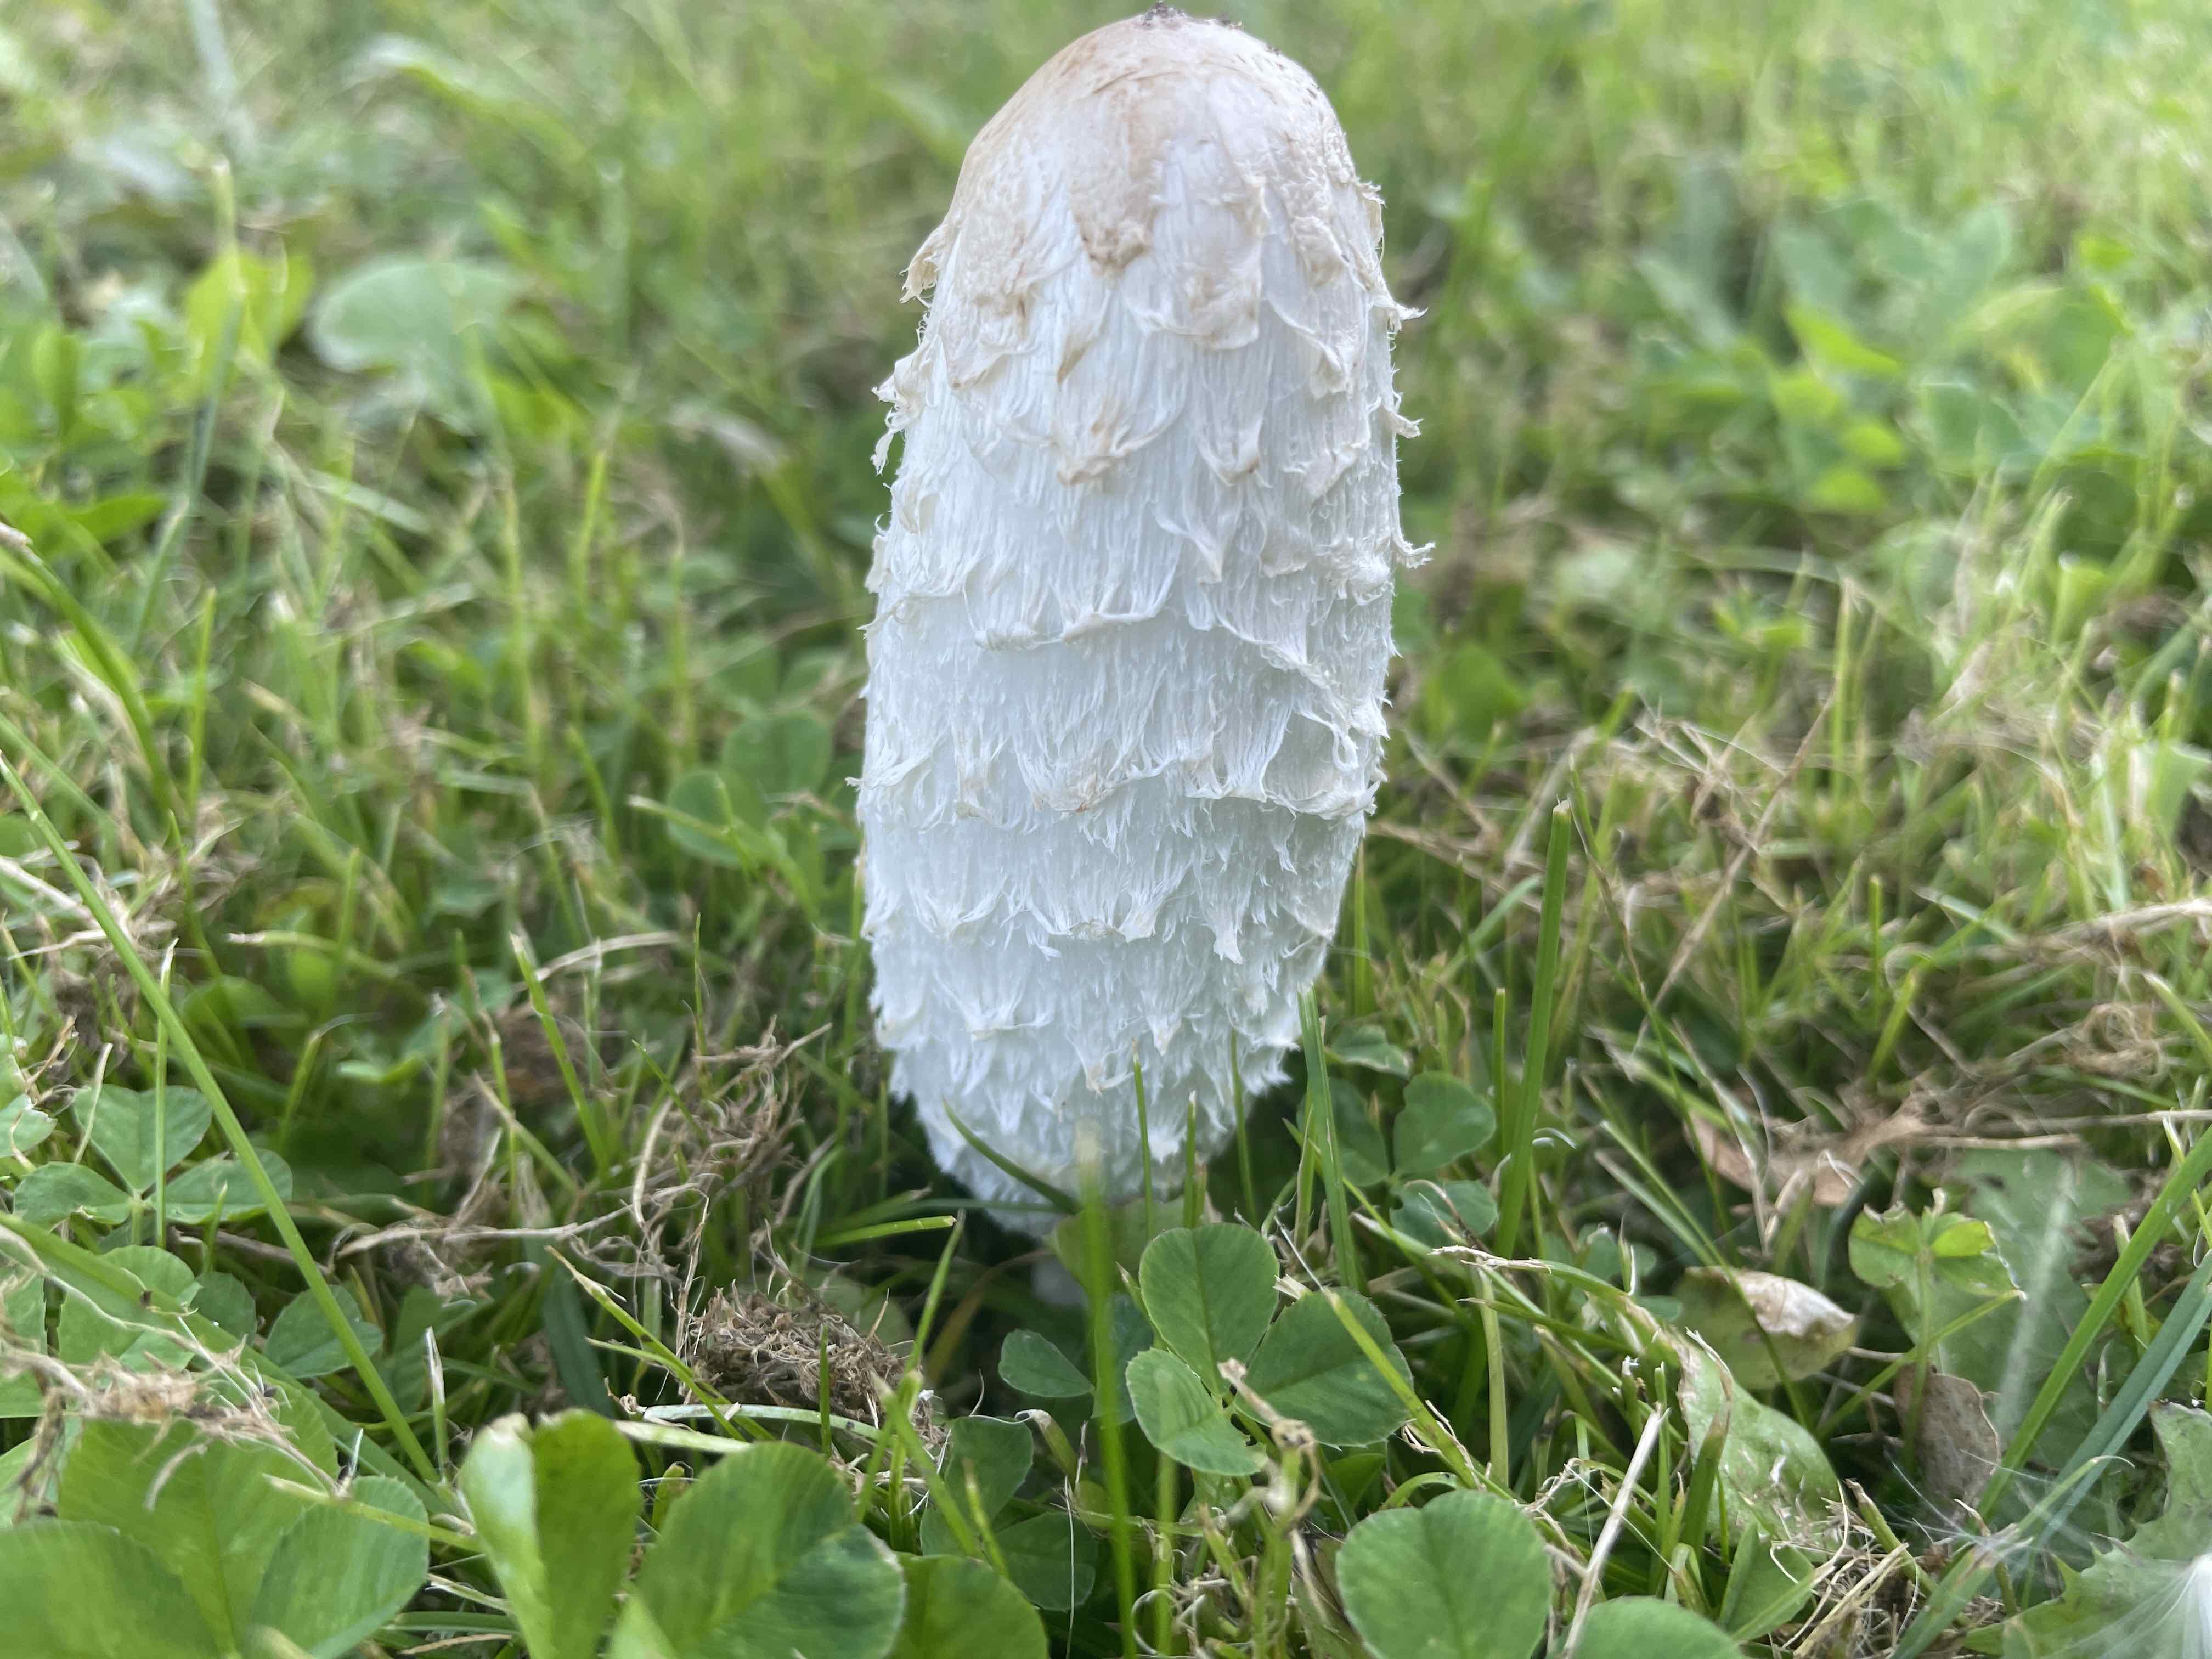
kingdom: Fungi
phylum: Basidiomycota
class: Agaricomycetes
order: Agaricales
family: Agaricaceae
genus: Coprinus
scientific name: Coprinus comatus
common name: stor parykhat
